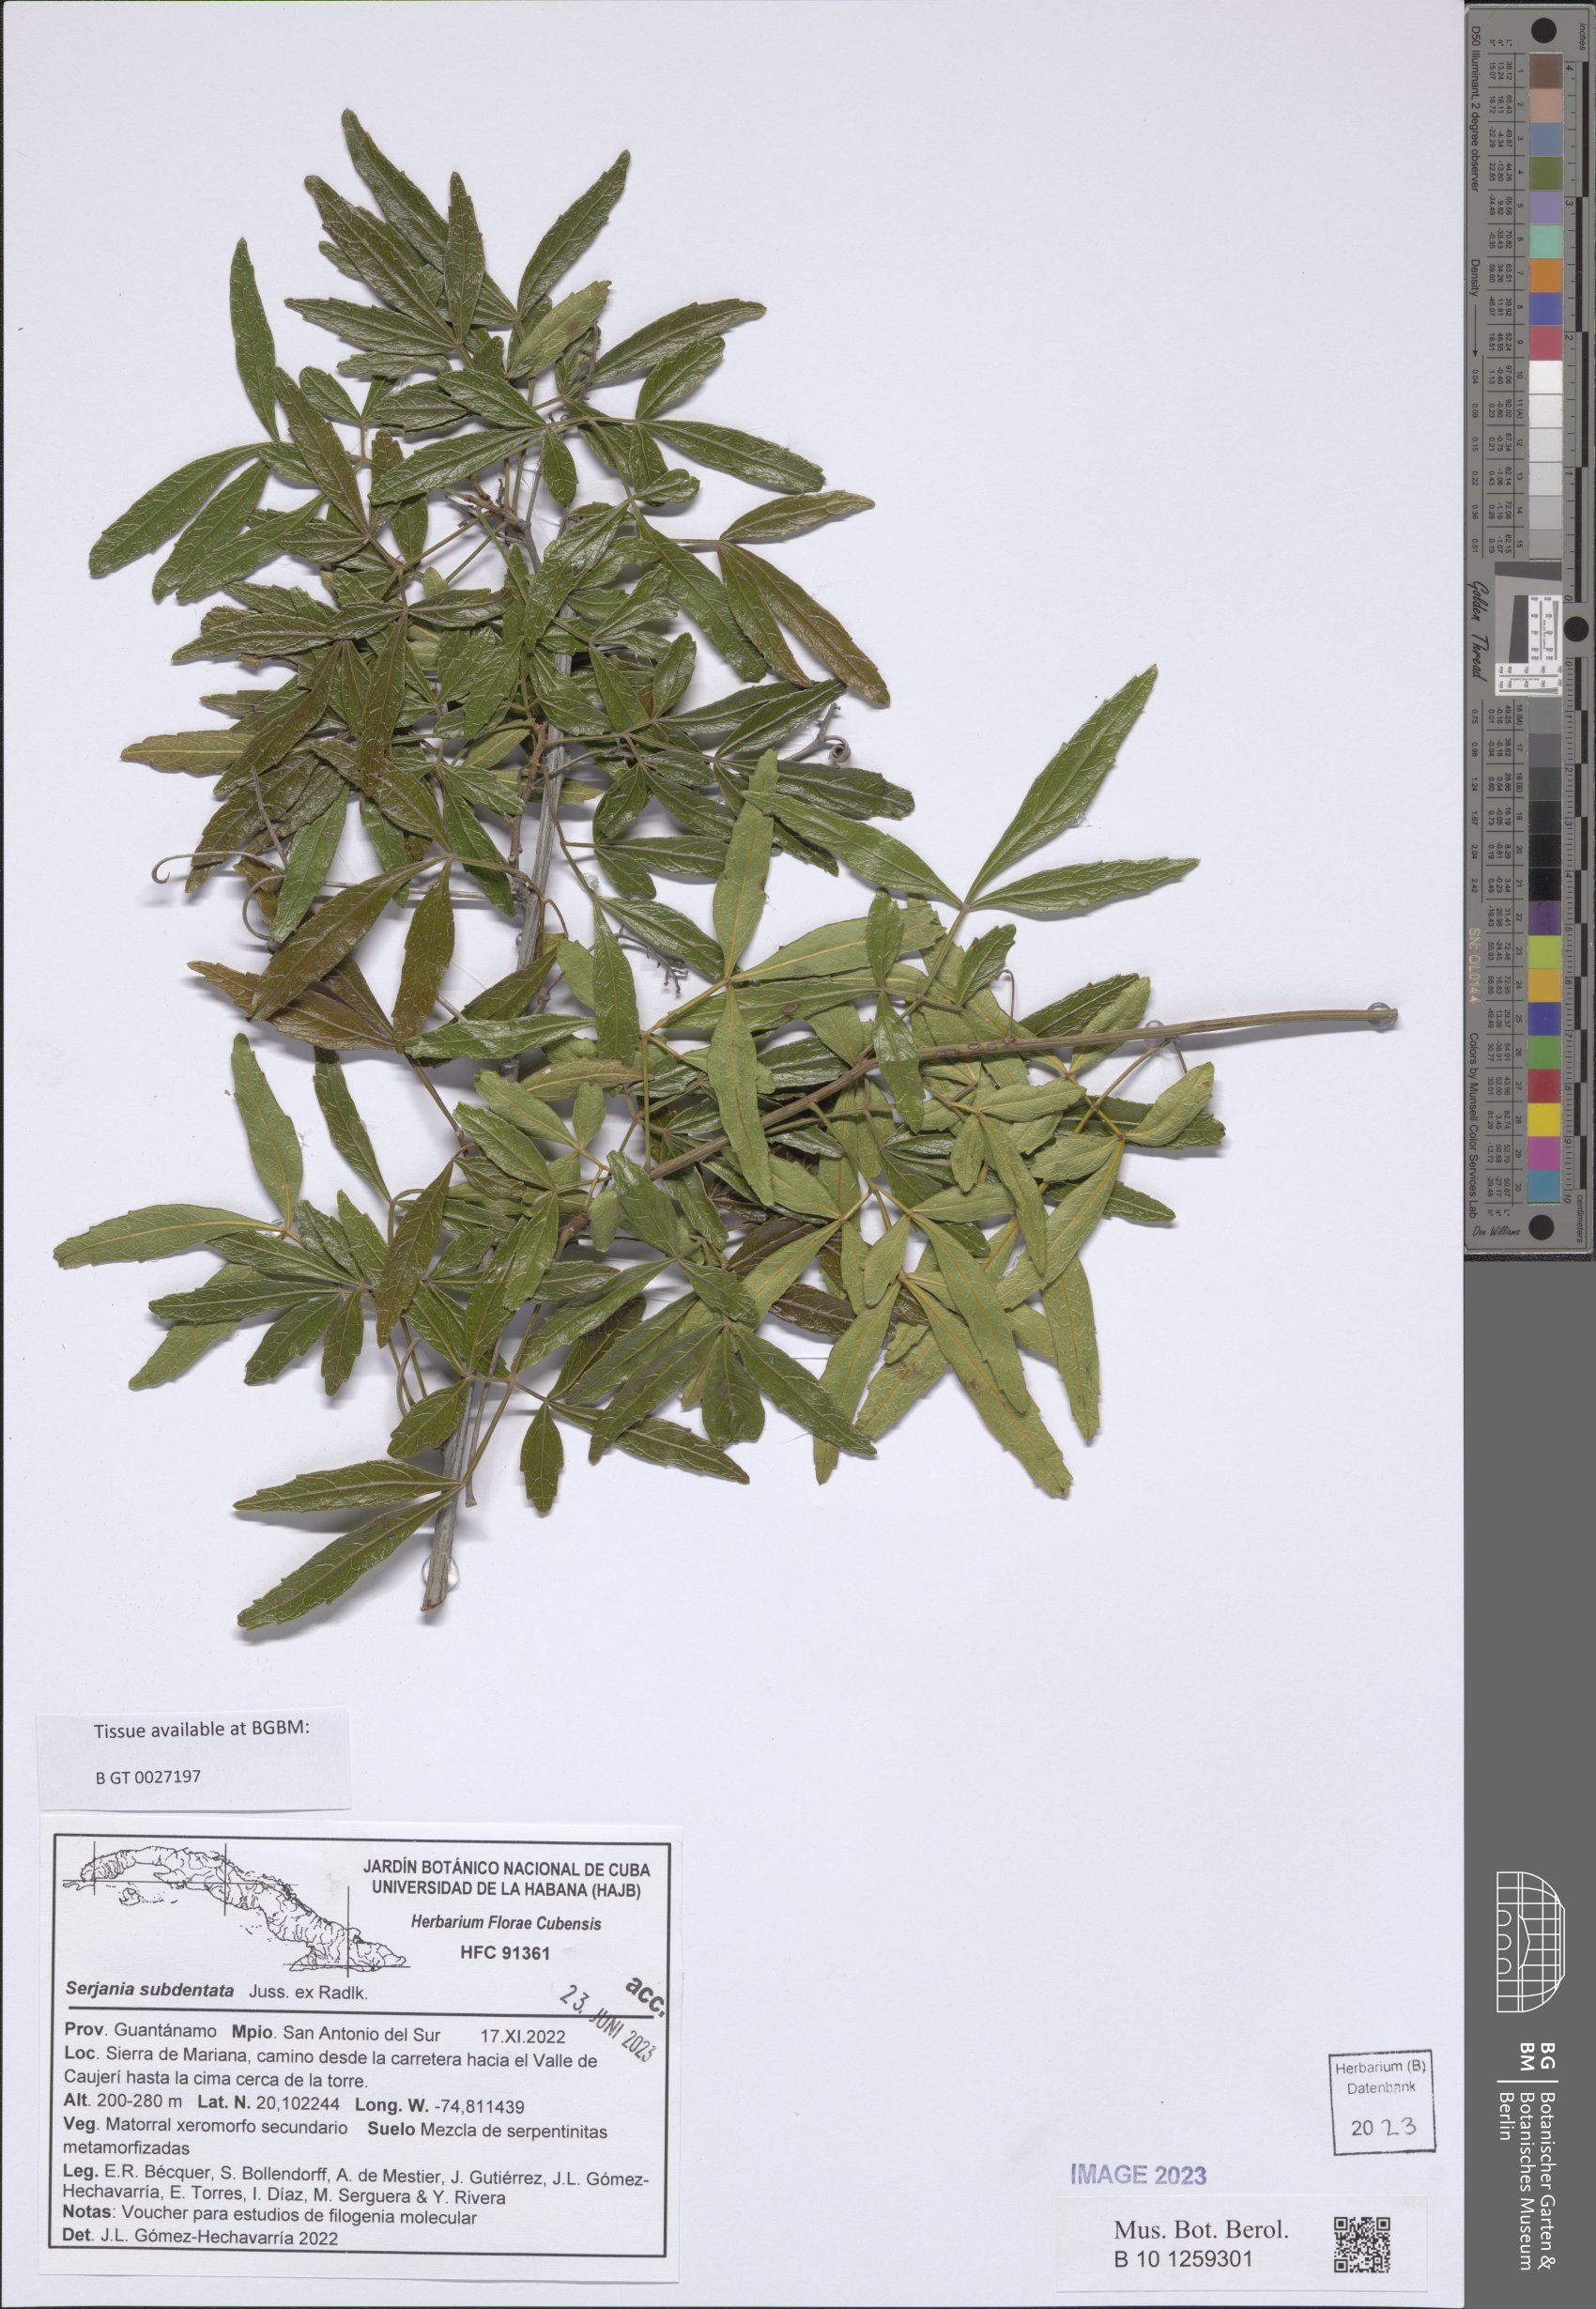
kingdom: Plantae
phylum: Tracheophyta
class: Magnoliopsida
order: Sapindales
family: Sapindaceae
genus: Serjania
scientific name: Serjania subdentata
